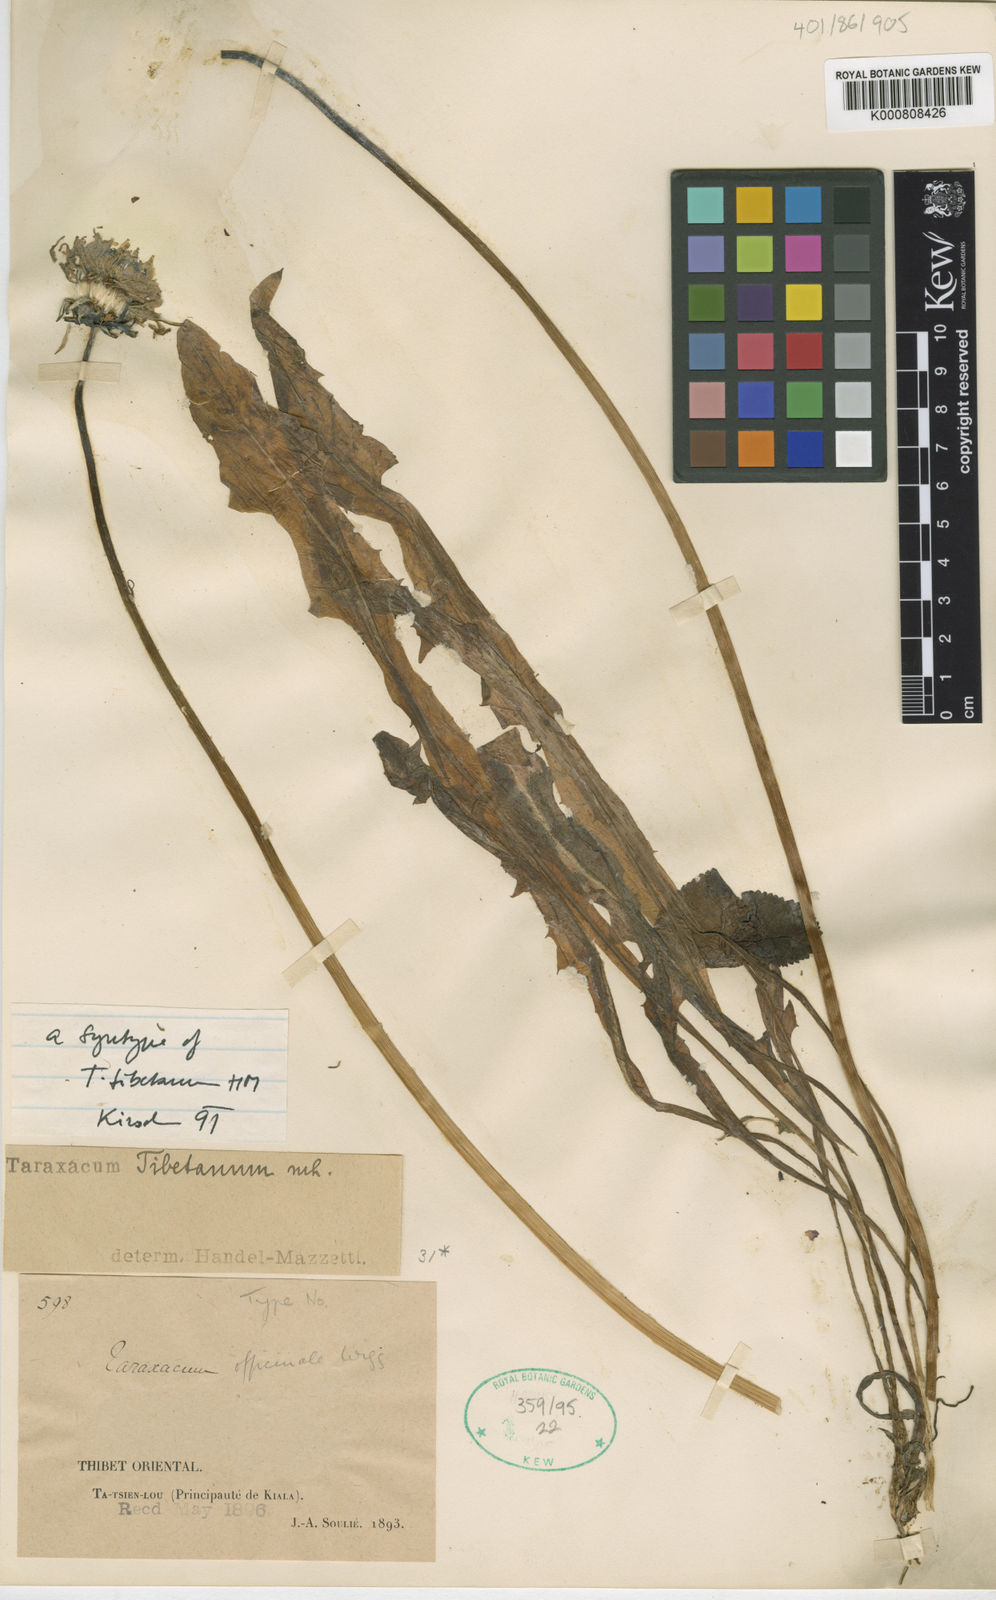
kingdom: Plantae
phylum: Tracheophyta
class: Magnoliopsida
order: Asterales
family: Asteraceae
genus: Taraxacum
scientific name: Taraxacum tibetanum
